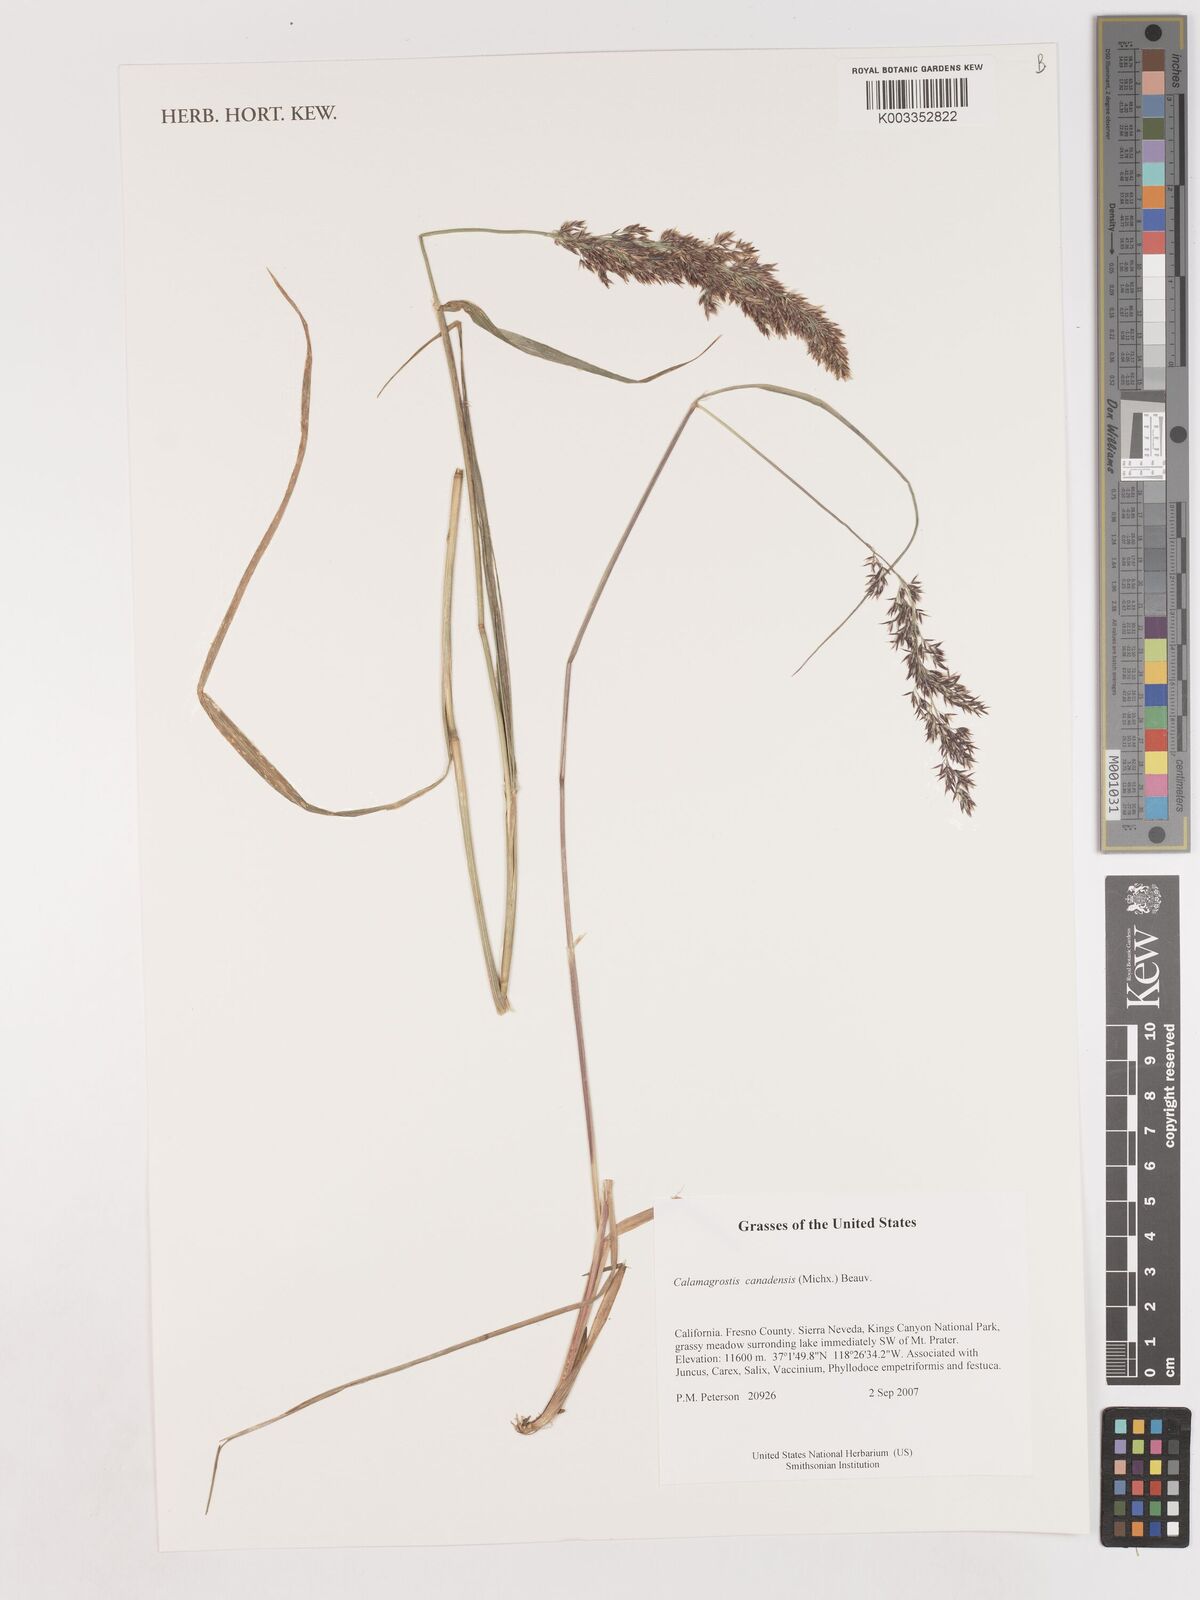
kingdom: Plantae
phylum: Tracheophyta
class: Liliopsida
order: Poales
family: Poaceae
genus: Calamagrostis
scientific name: Calamagrostis canadensis
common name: Canada bluejoint
